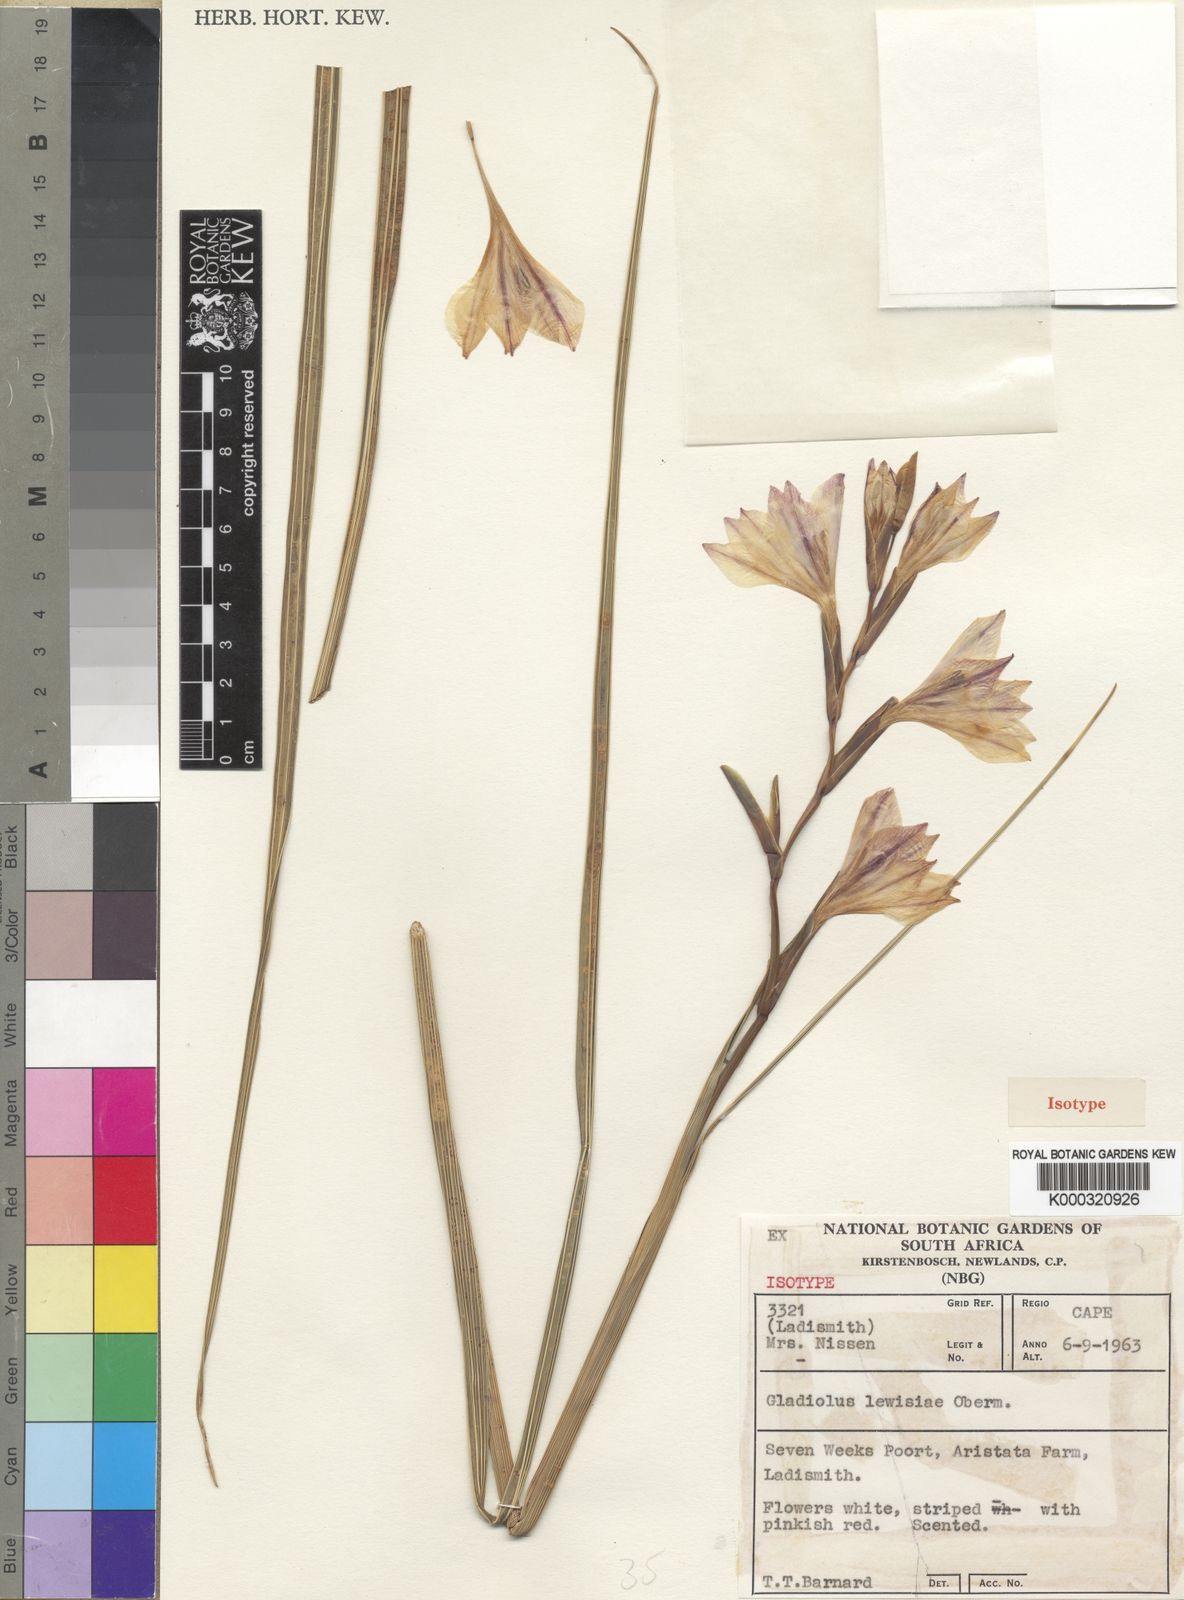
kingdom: Plantae
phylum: Tracheophyta
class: Liliopsida
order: Asparagales
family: Iridaceae
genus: Gladiolus
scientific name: Gladiolus lewisiae
